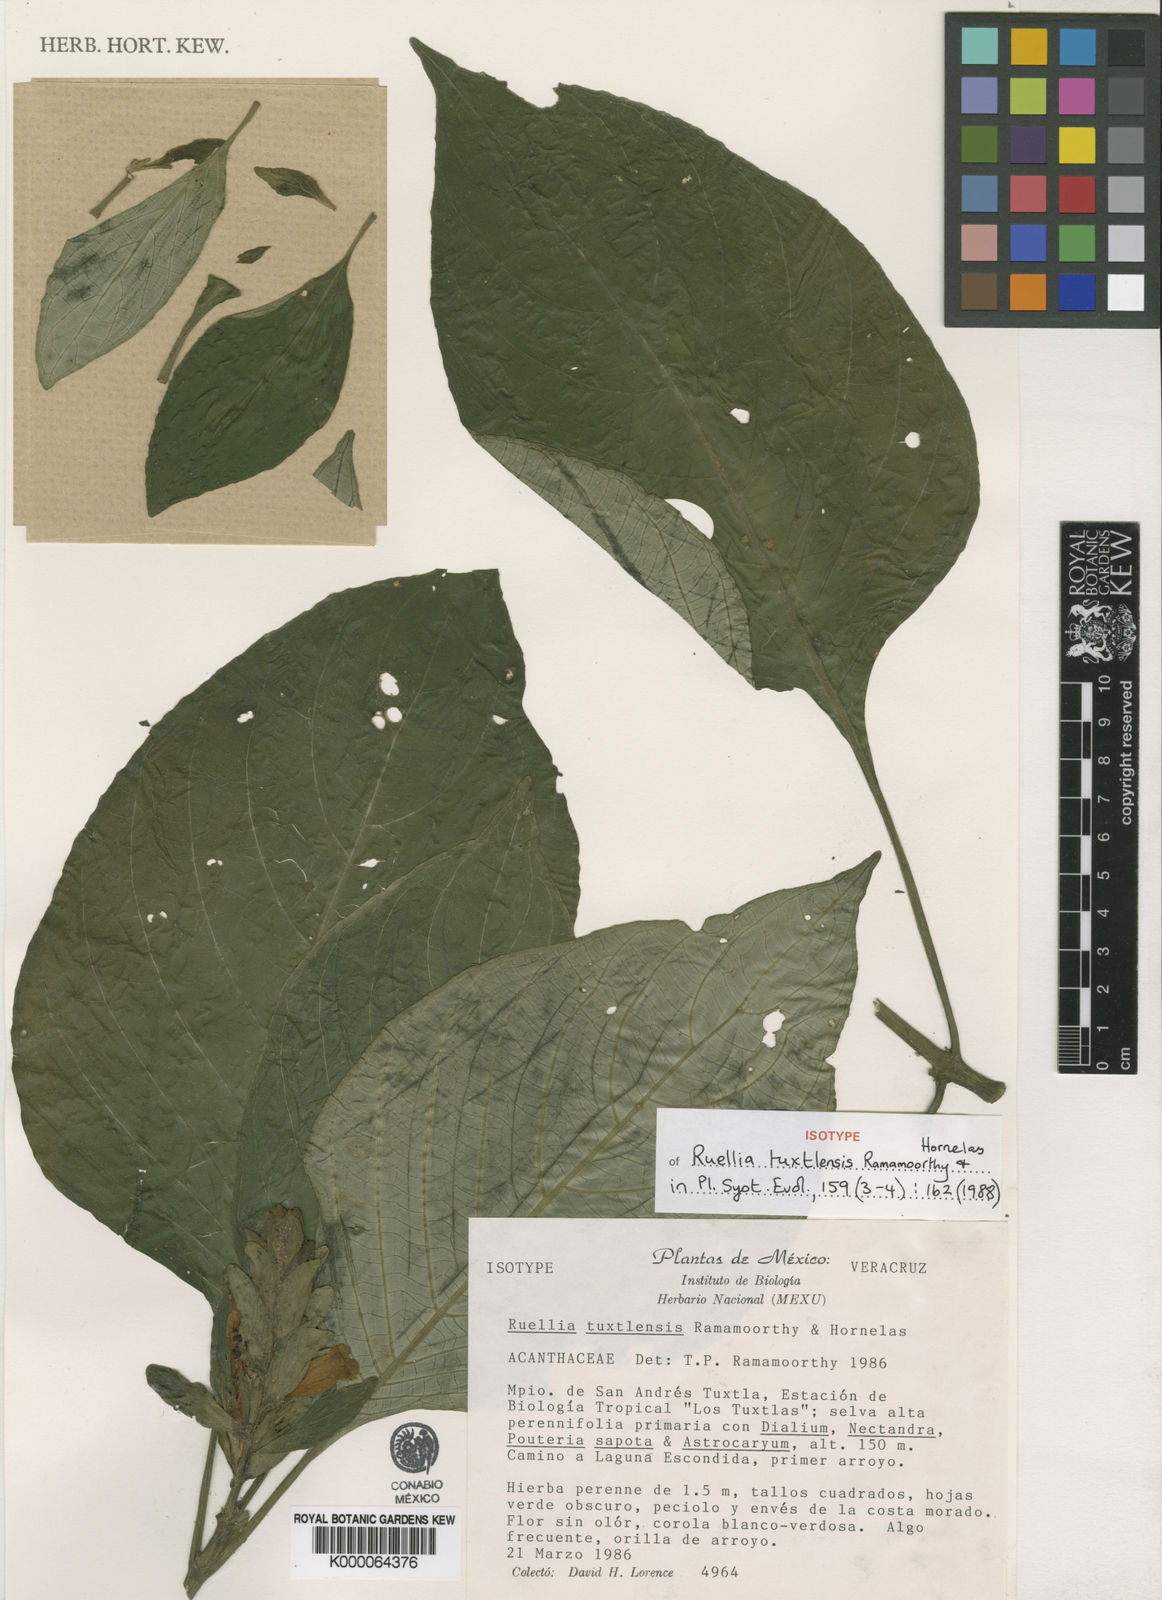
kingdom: Plantae
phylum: Tracheophyta
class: Magnoliopsida
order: Lamiales
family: Acanthaceae
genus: Ruellia
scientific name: Ruellia tuxtlensis
